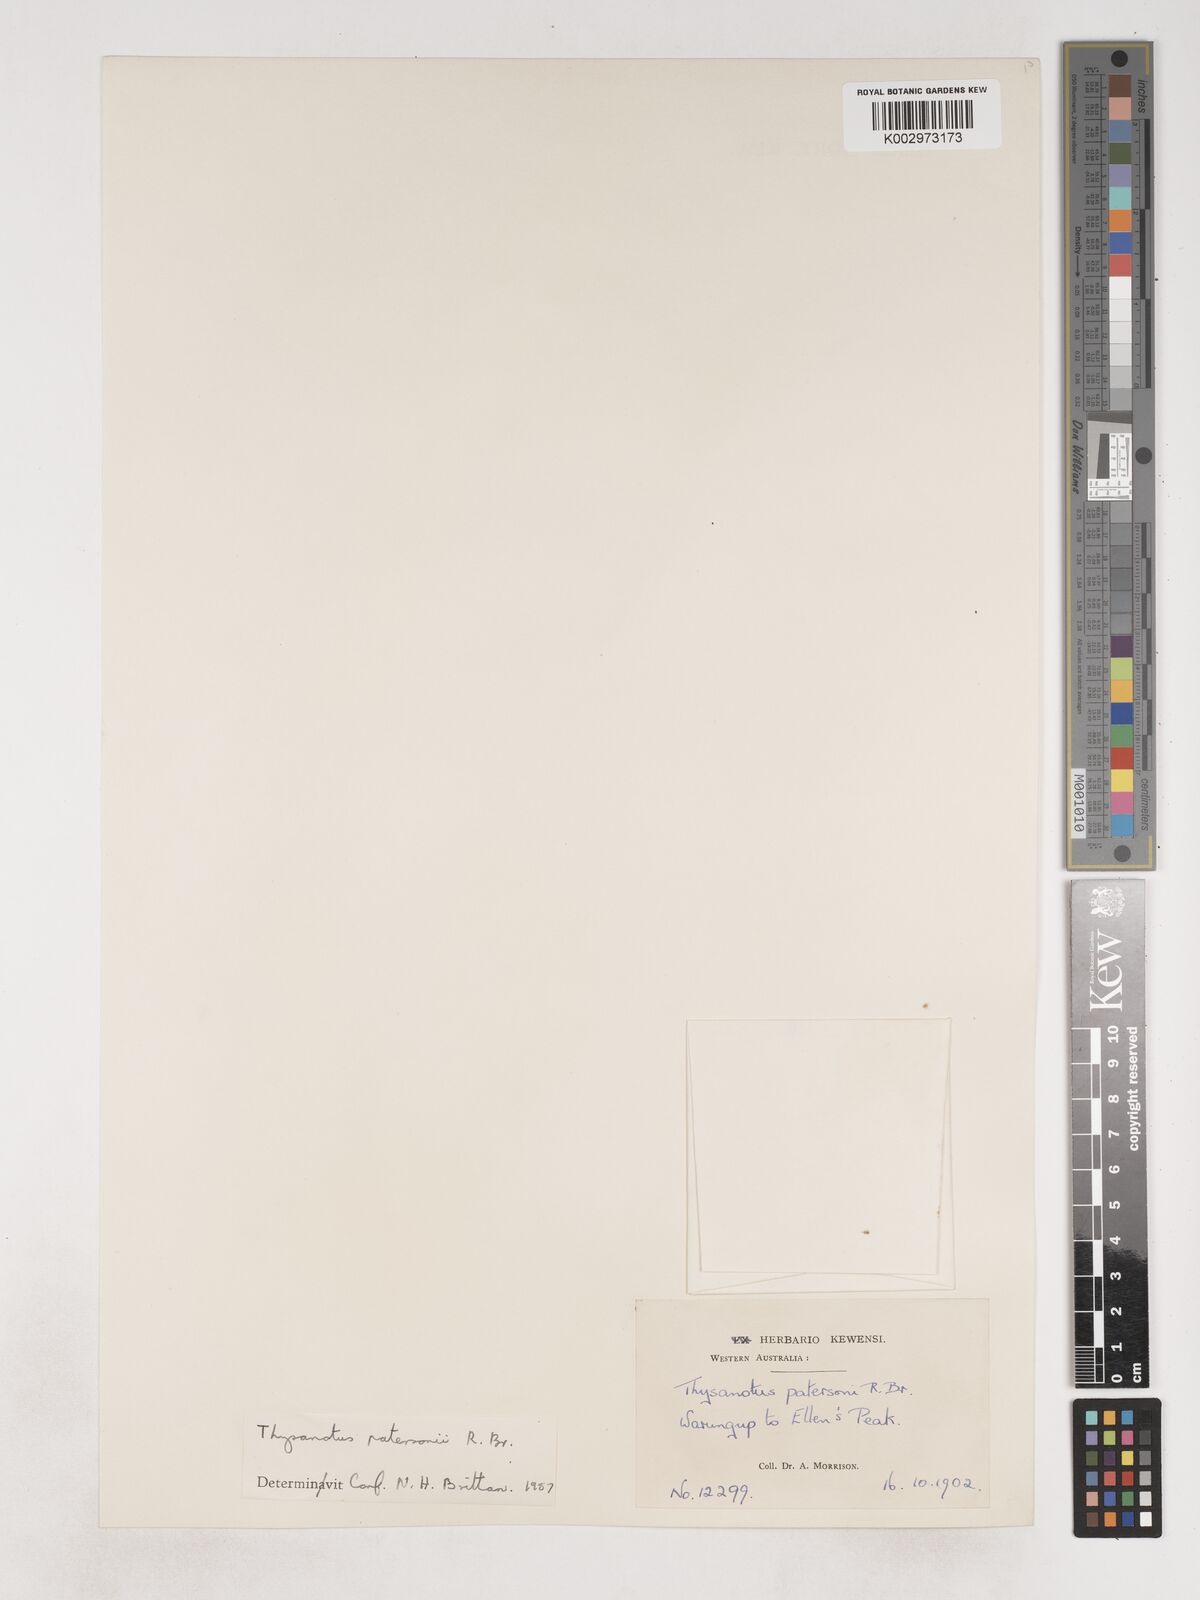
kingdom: Plantae
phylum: Tracheophyta
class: Liliopsida
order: Asparagales
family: Asparagaceae
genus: Thysanotus
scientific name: Thysanotus patersonii
